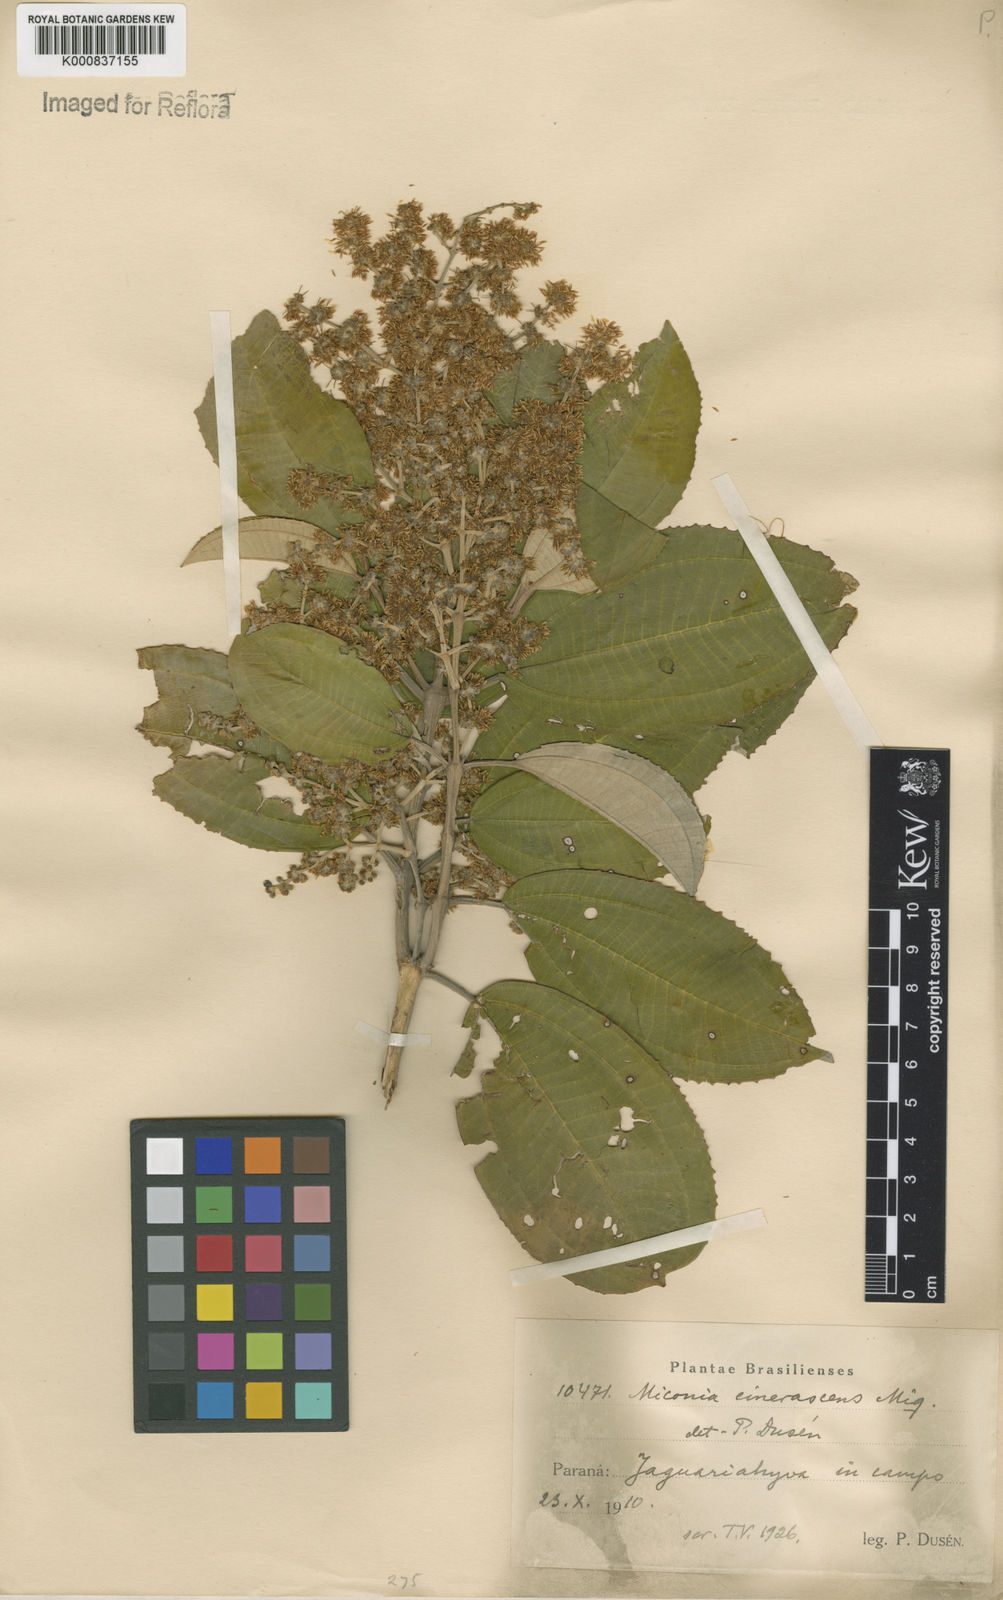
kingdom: Plantae
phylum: Tracheophyta
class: Magnoliopsida
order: Myrtales
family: Melastomataceae
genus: Miconia
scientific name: Miconia cinerascens
